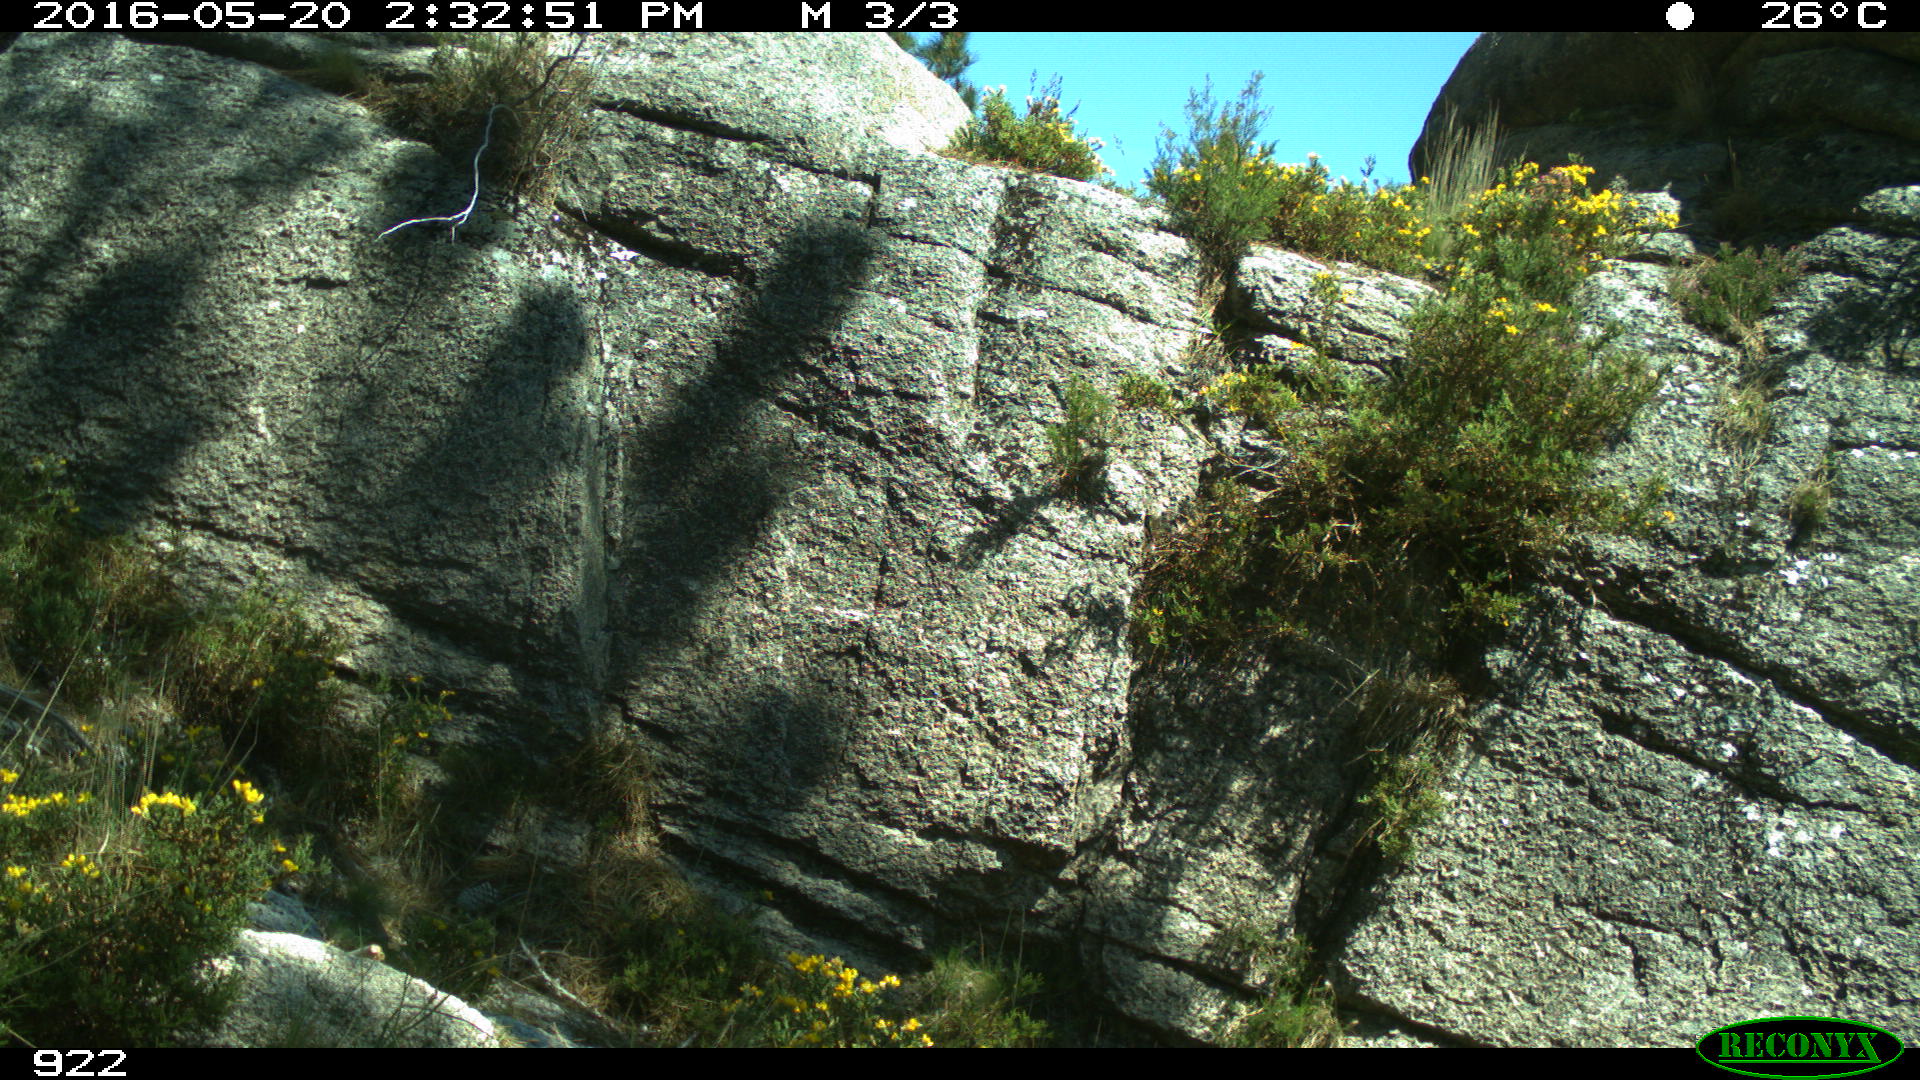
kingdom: Animalia
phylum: Chordata
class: Mammalia
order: Artiodactyla
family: Cervidae
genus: Capreolus
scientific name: Capreolus capreolus
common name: Western roe deer
